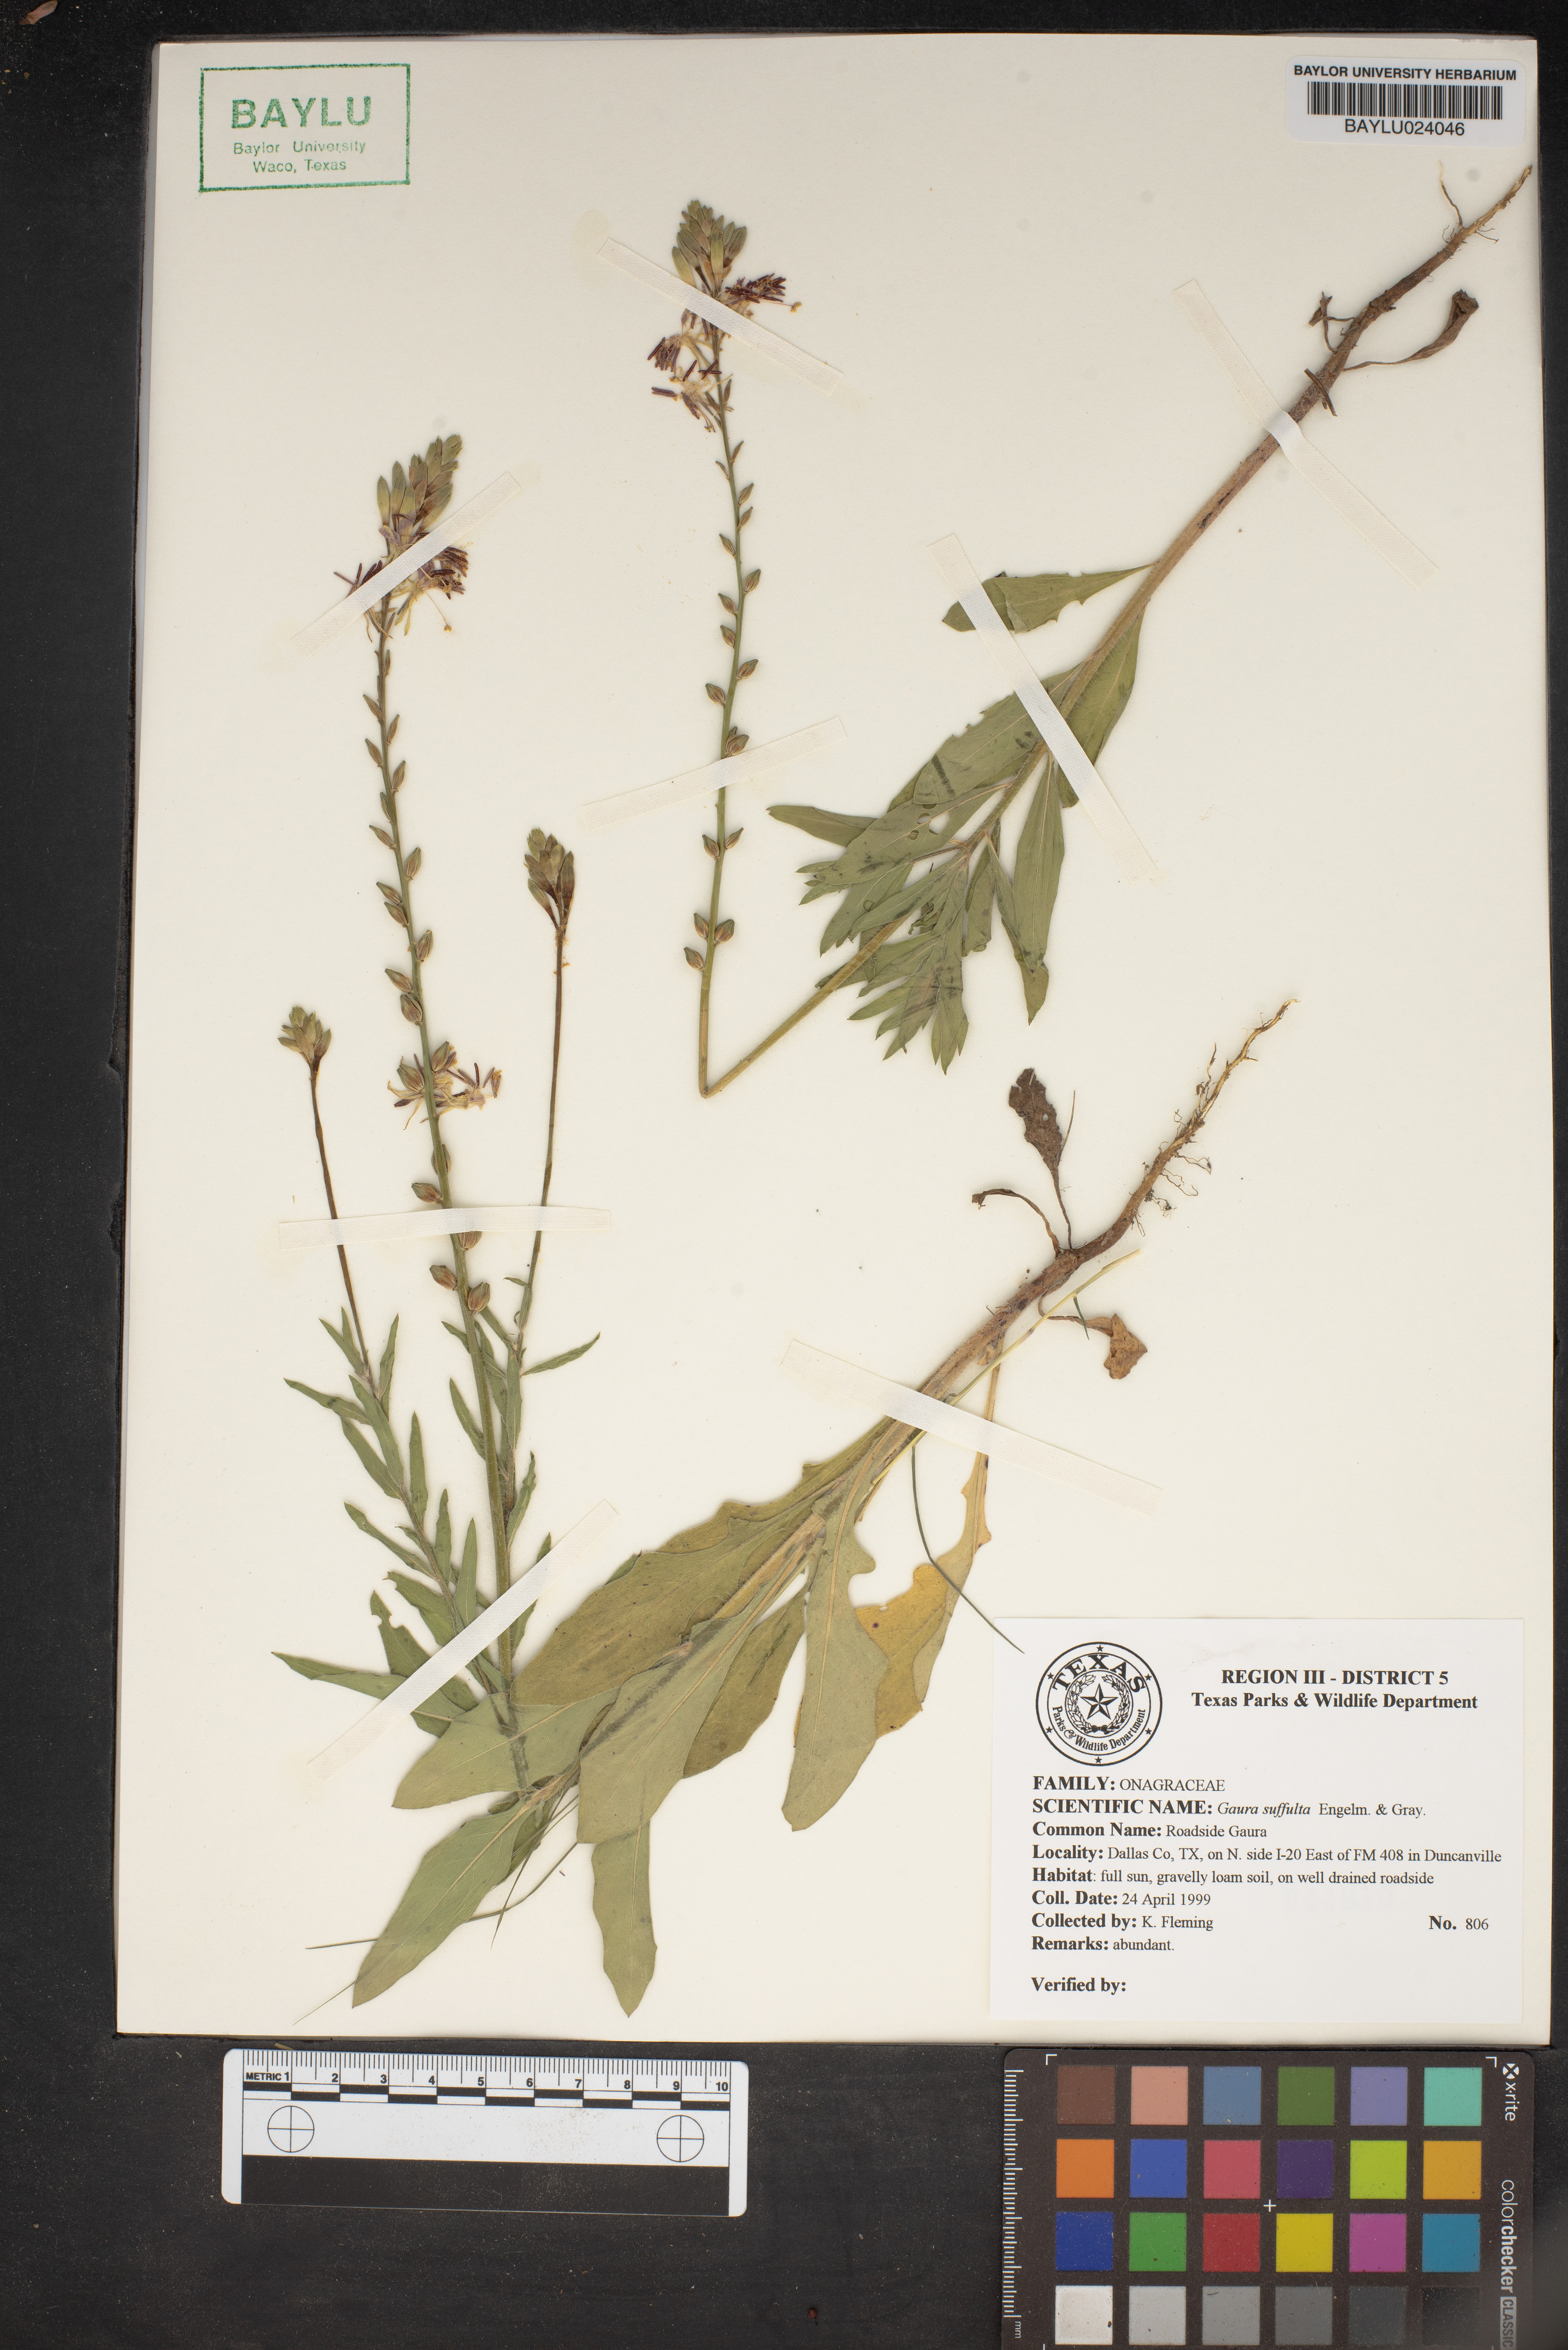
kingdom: Plantae
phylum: Tracheophyta
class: Magnoliopsida
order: Myrtales
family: Onagraceae
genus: Oenothera
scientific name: Oenothera Gaura suffulta
